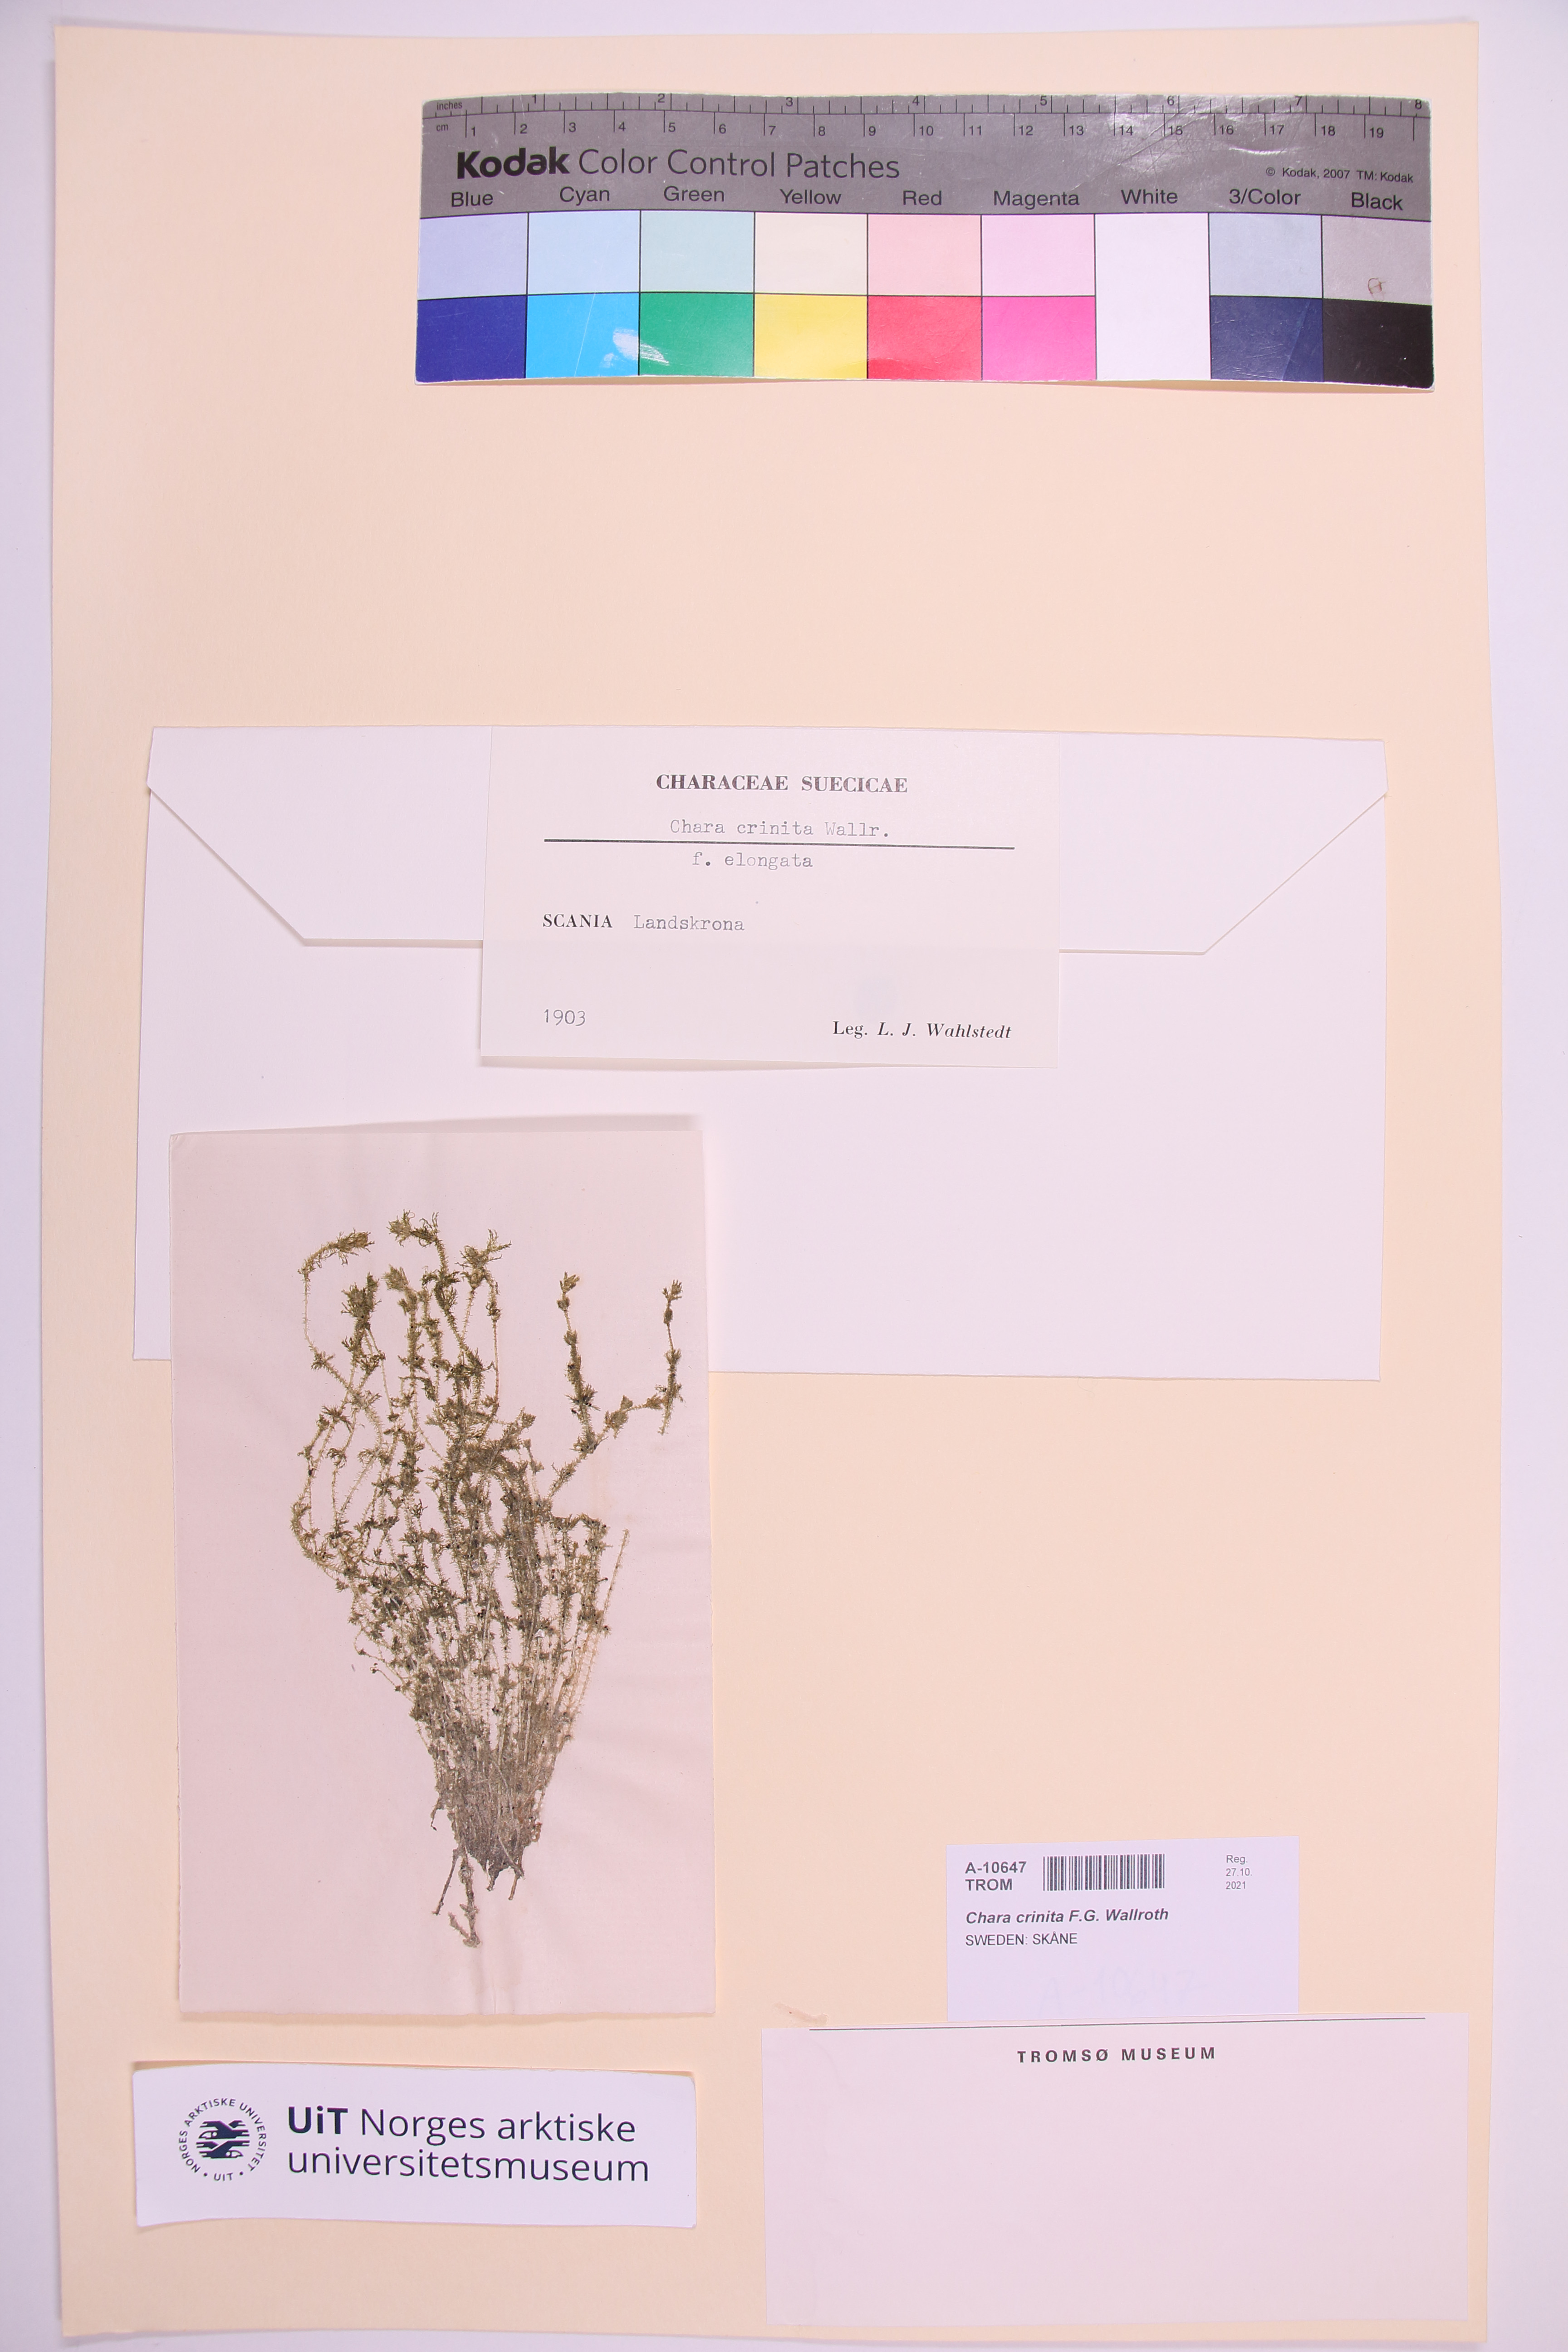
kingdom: Plantae
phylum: Charophyta
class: Charophyceae
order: Charales
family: Characeae
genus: Chara
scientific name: Chara canescens
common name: Bearded stonewort
